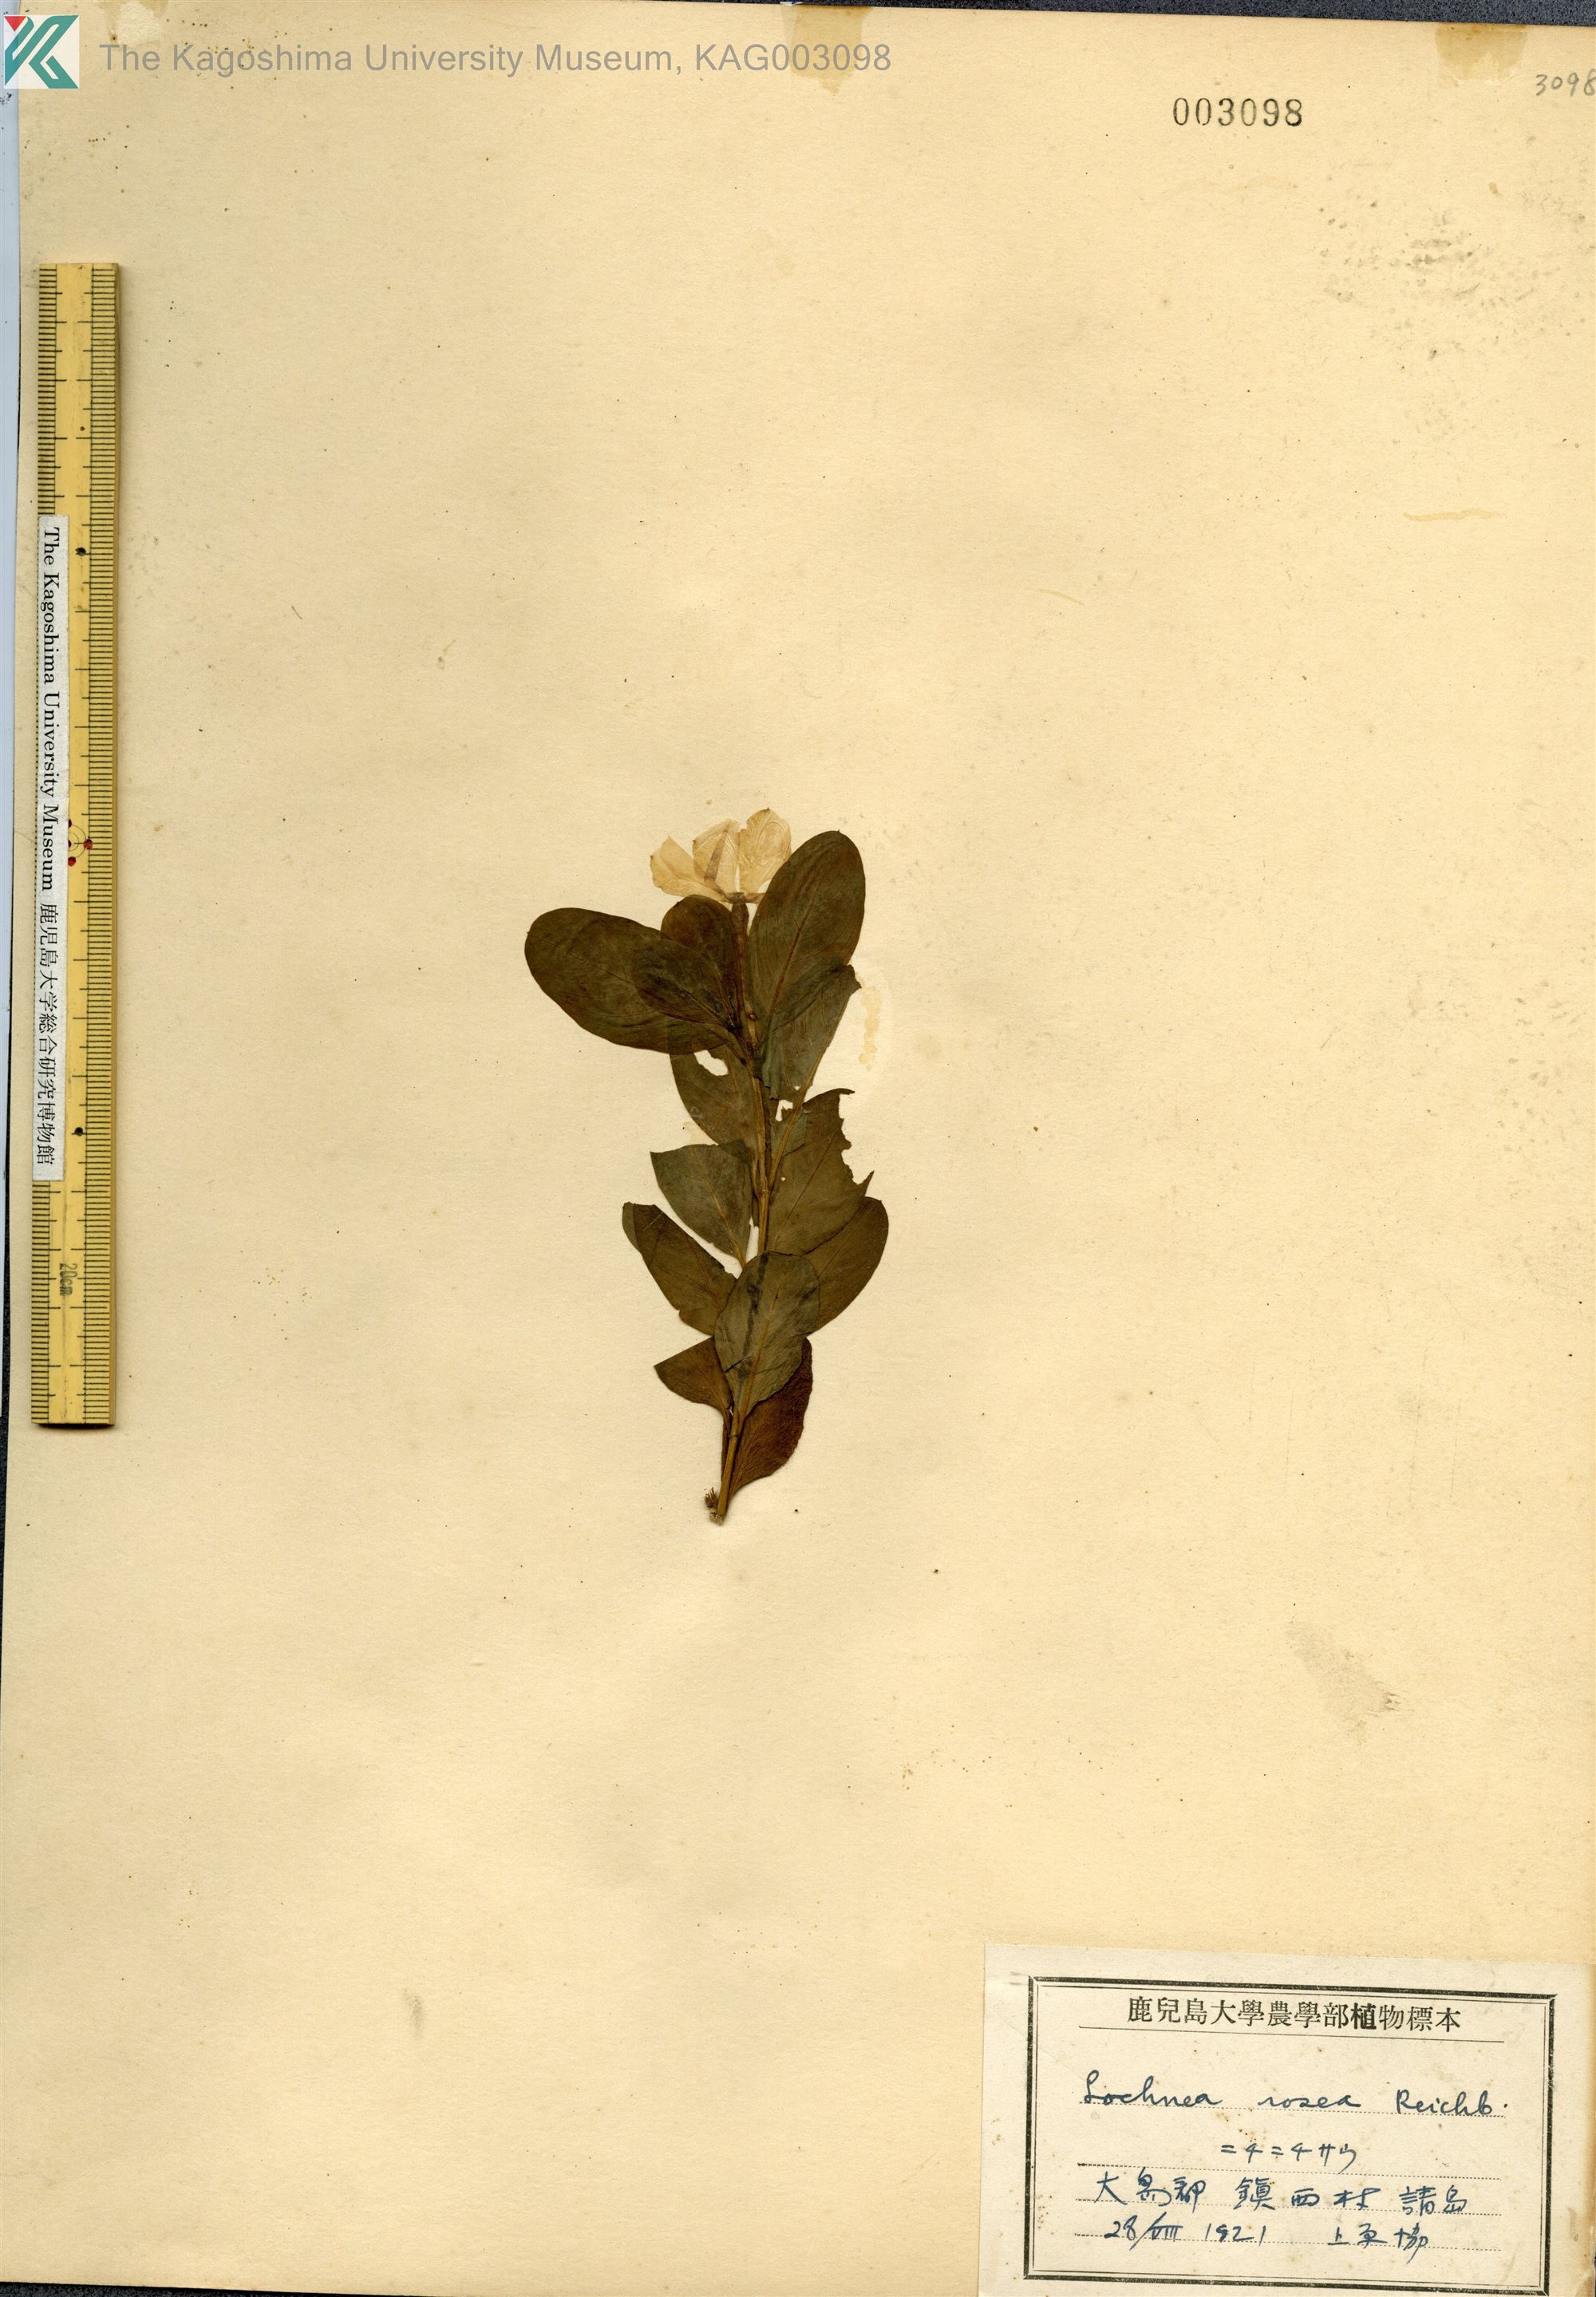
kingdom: Plantae
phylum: Tracheophyta
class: Magnoliopsida
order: Gentianales
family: Apocynaceae
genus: Catharanthus
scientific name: Catharanthus roseus
